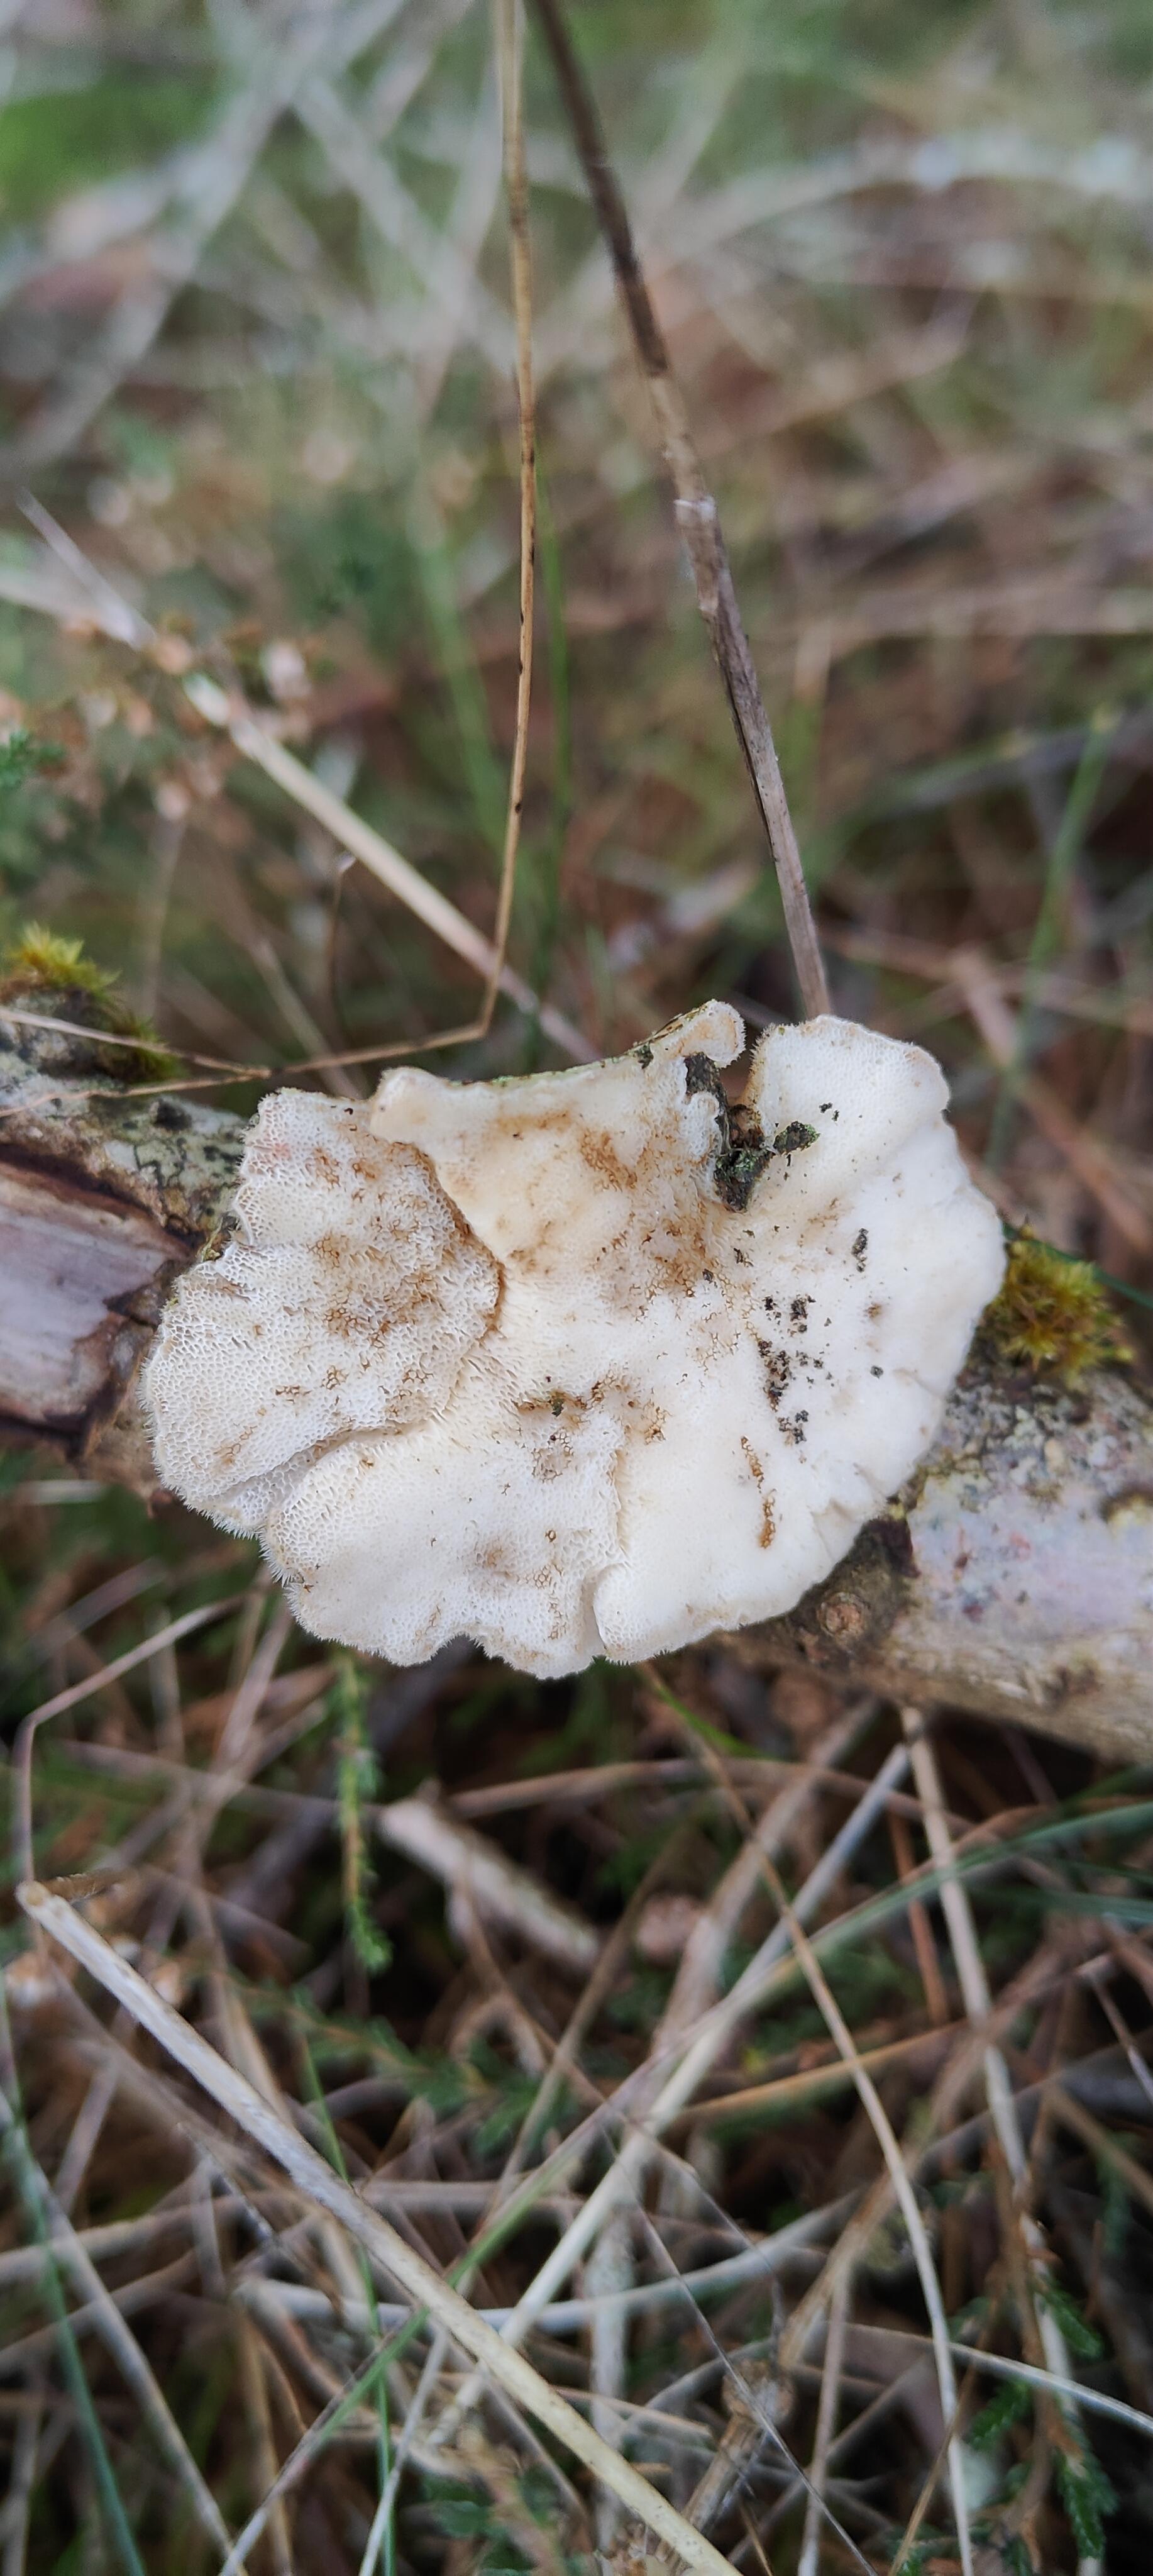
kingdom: Fungi
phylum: Basidiomycota
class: Agaricomycetes
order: Polyporales
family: Polyporaceae
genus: Trametes
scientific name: Trametes ochracea
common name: bæltet læderporesvamp
